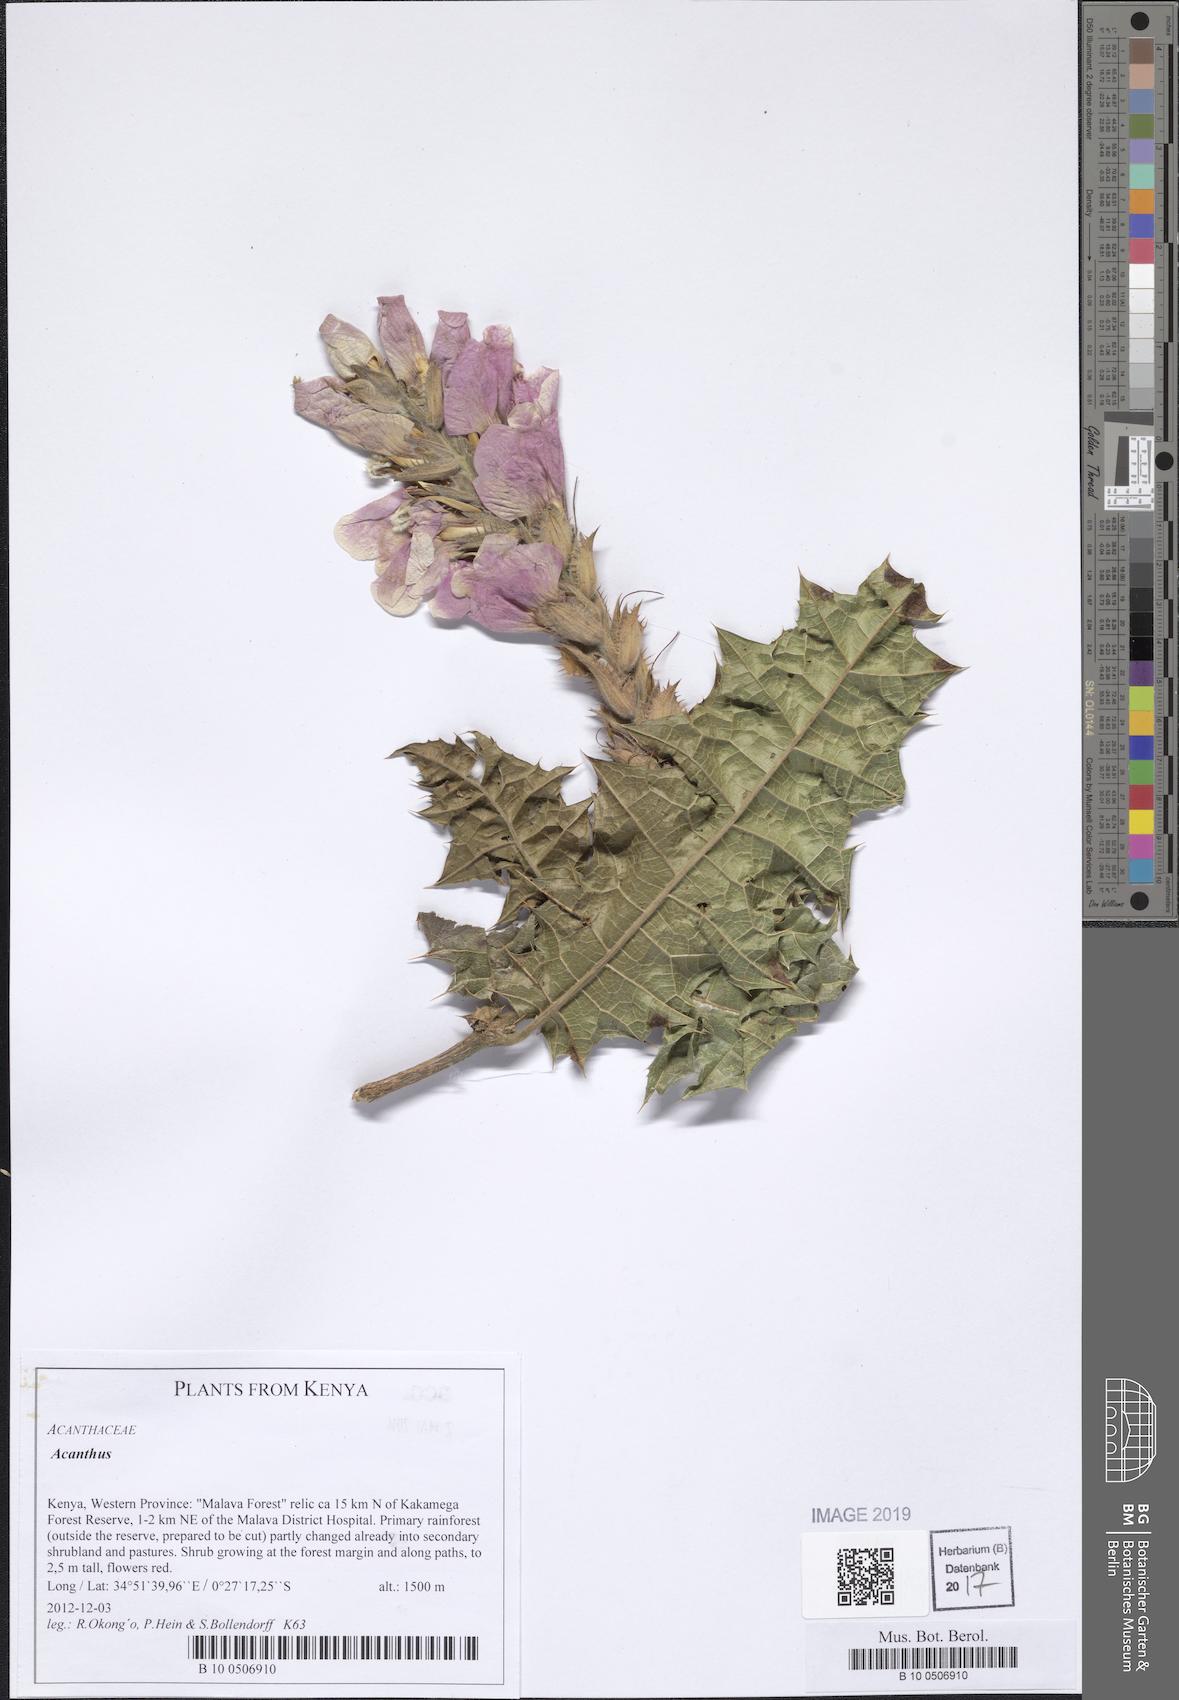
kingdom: Plantae
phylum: Tracheophyta
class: Magnoliopsida
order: Lamiales
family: Acanthaceae
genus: Acanthus
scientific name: Acanthus
